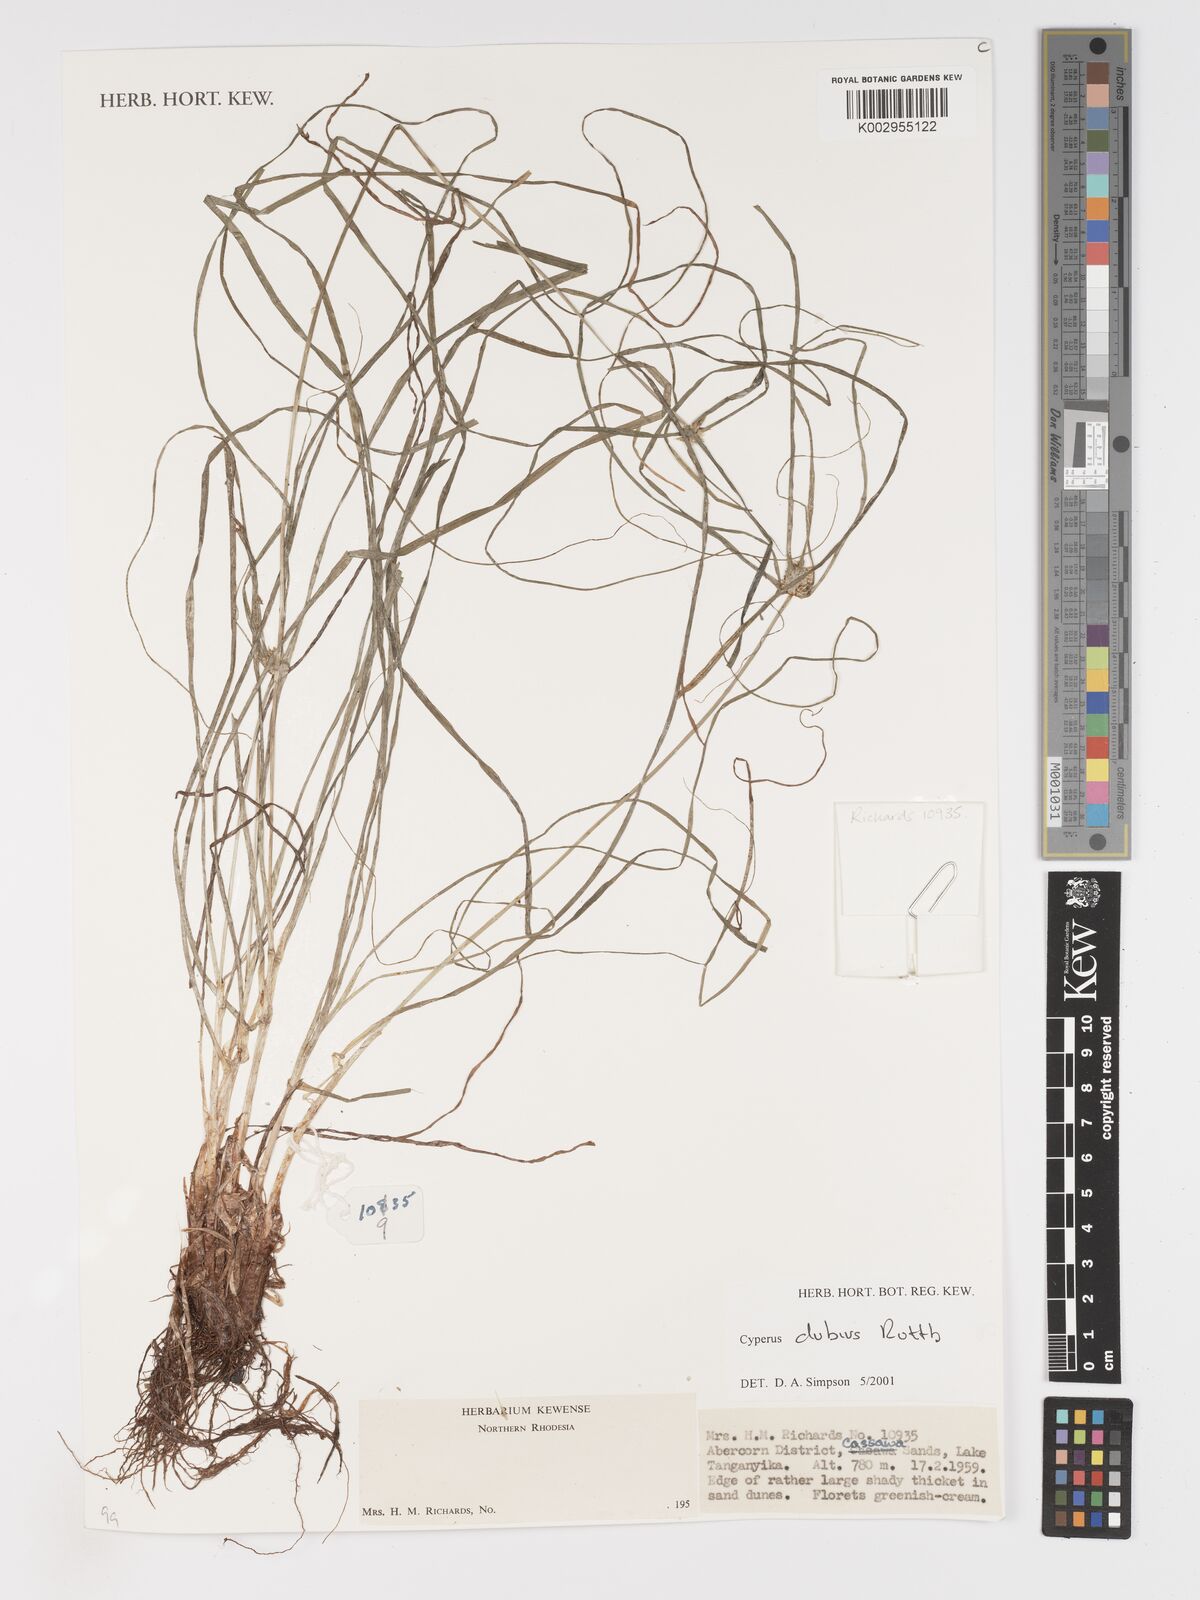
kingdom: Plantae
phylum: Tracheophyta
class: Liliopsida
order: Poales
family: Cyperaceae
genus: Cyperus
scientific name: Cyperus dubius
